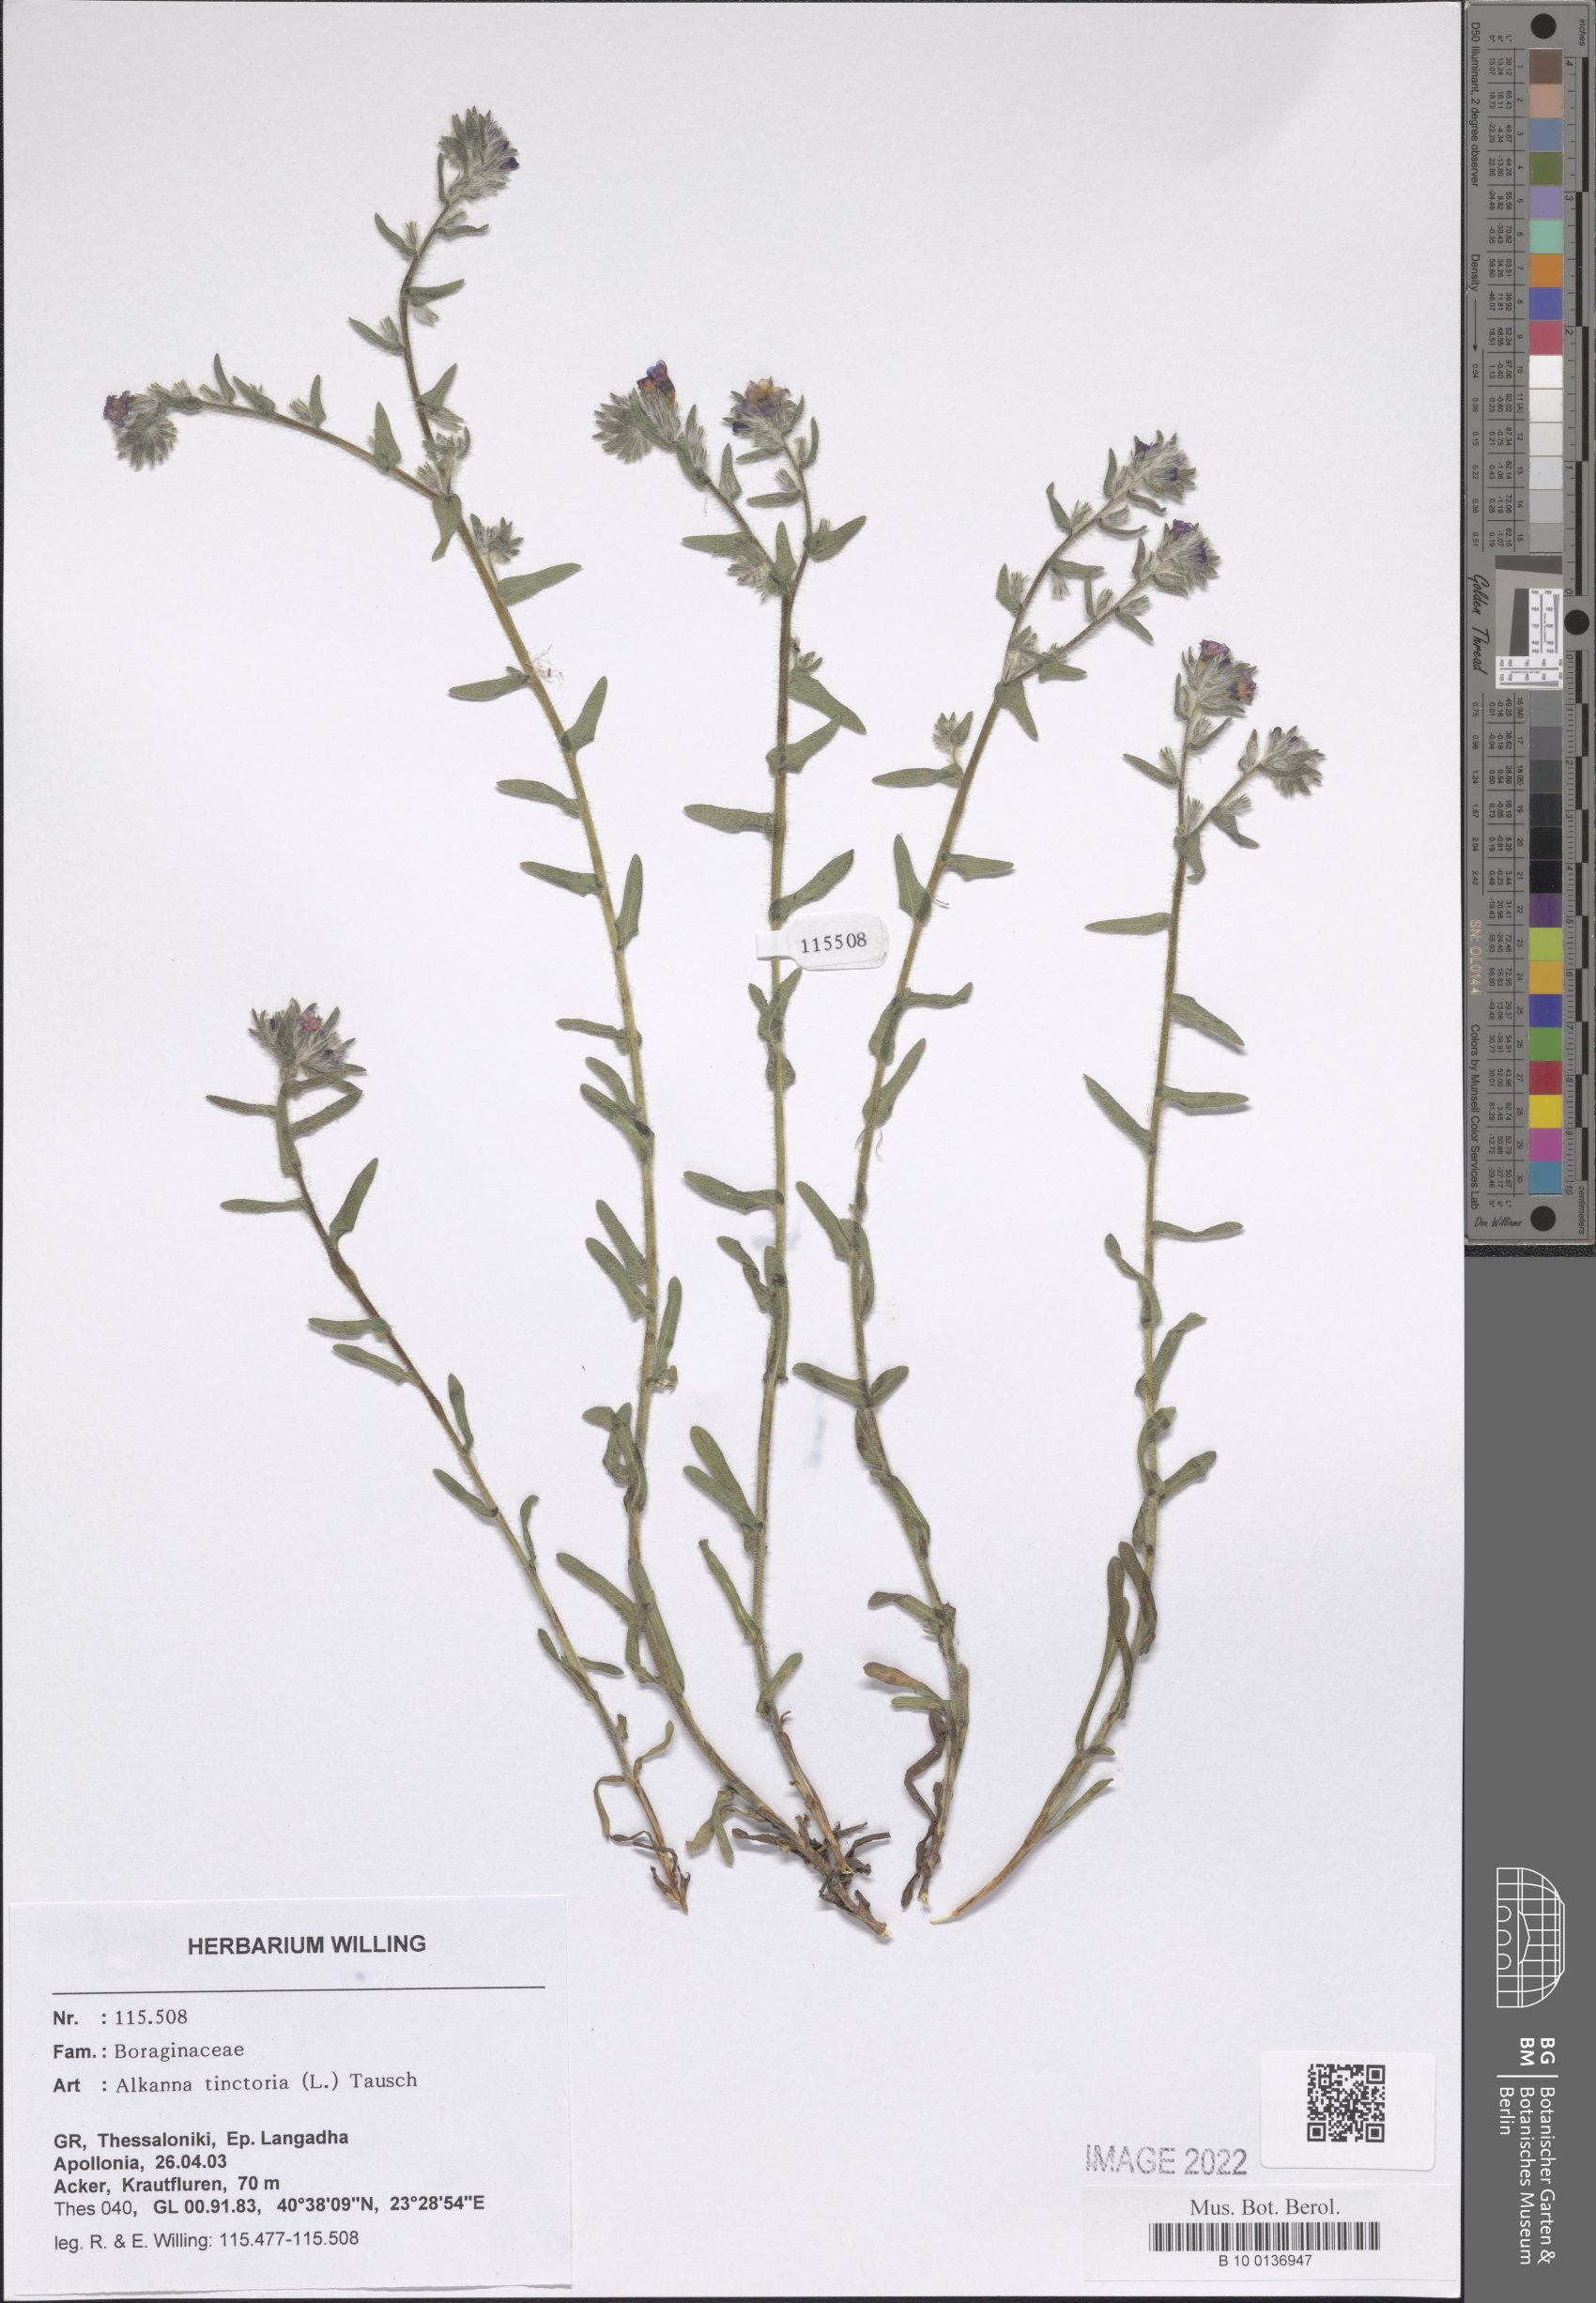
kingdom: Plantae
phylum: Tracheophyta
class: Magnoliopsida
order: Boraginales
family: Boraginaceae
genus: Alkanna
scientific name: Alkanna tinctoria
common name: Dyer's-alkanet
